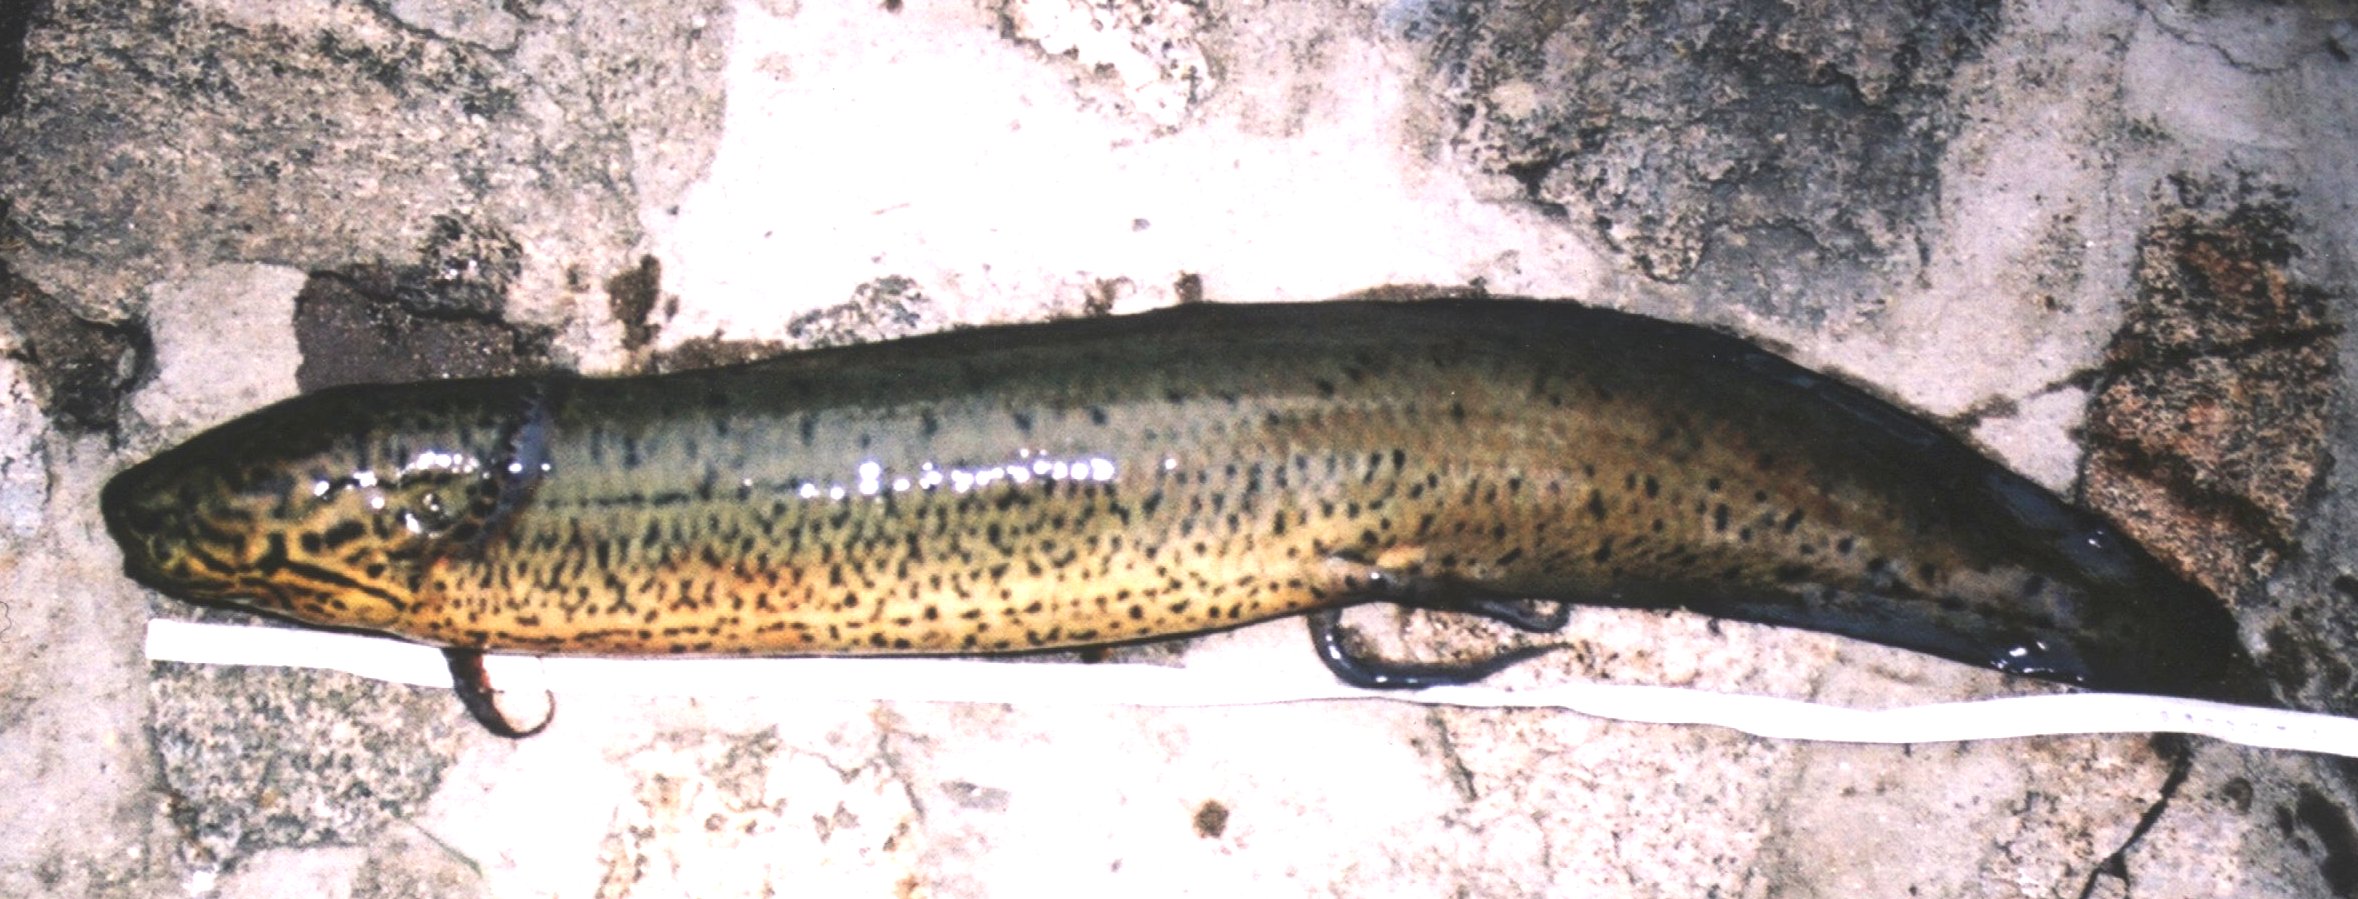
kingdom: Animalia
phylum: Chordata
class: Dipneusti
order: Ceratodontiformes
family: Protopteridae
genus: Protopterus
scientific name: Protopterus annectens
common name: Lungfish
